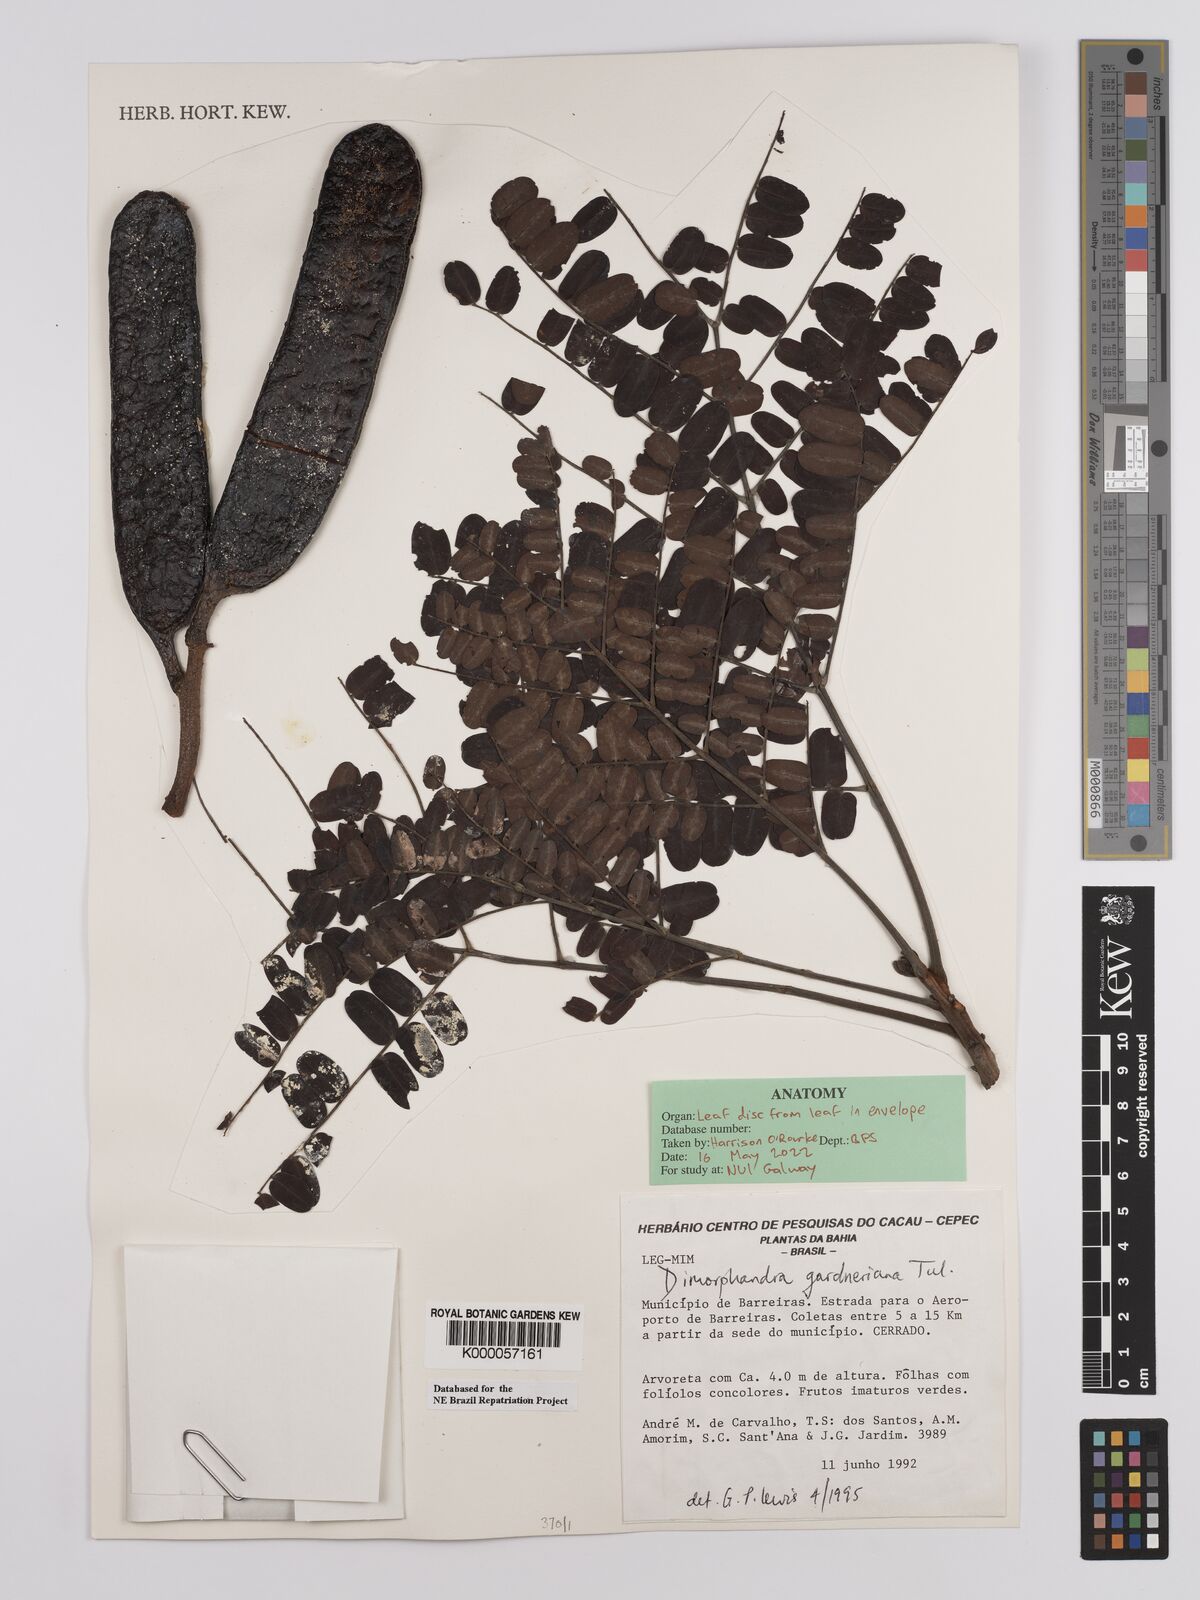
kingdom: Plantae
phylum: Tracheophyta
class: Magnoliopsida
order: Fabales
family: Fabaceae
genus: Dimorphandra
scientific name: Dimorphandra gardneriana
